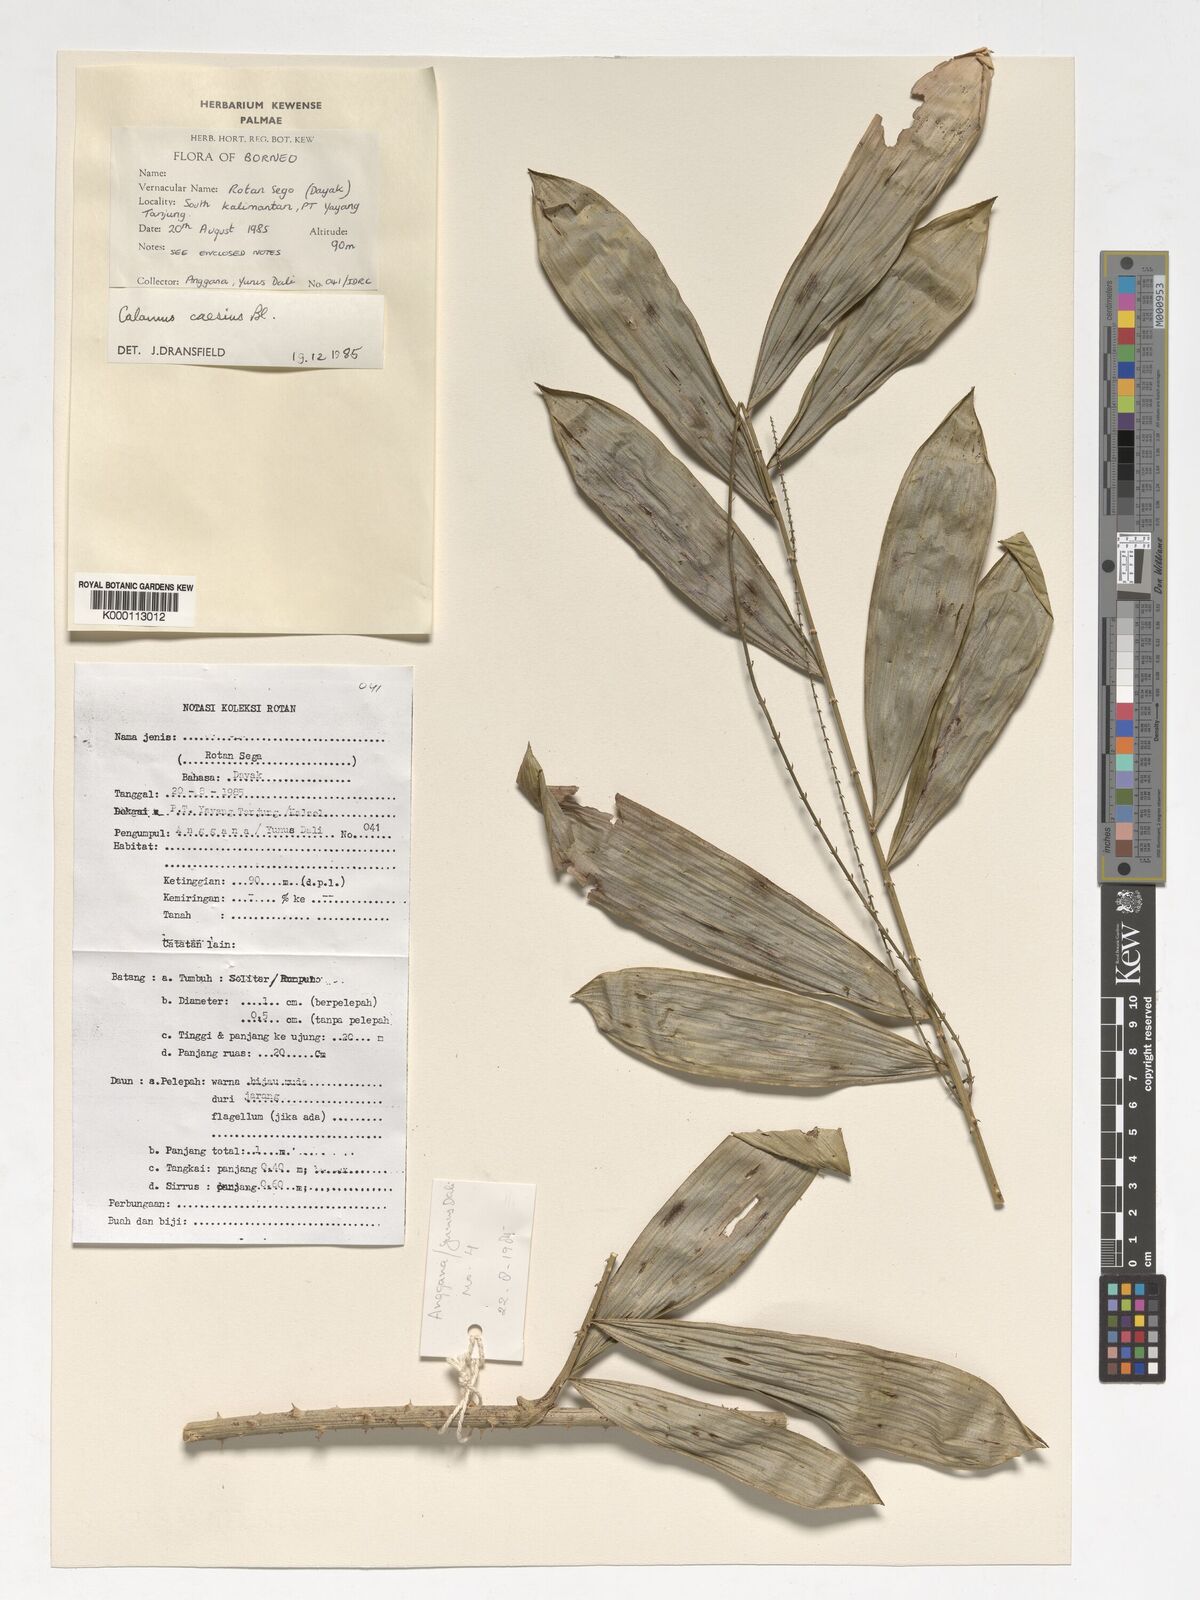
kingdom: Plantae
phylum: Tracheophyta
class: Liliopsida
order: Arecales
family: Arecaceae
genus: Calamus
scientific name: Calamus caesius
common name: Rattan palm
